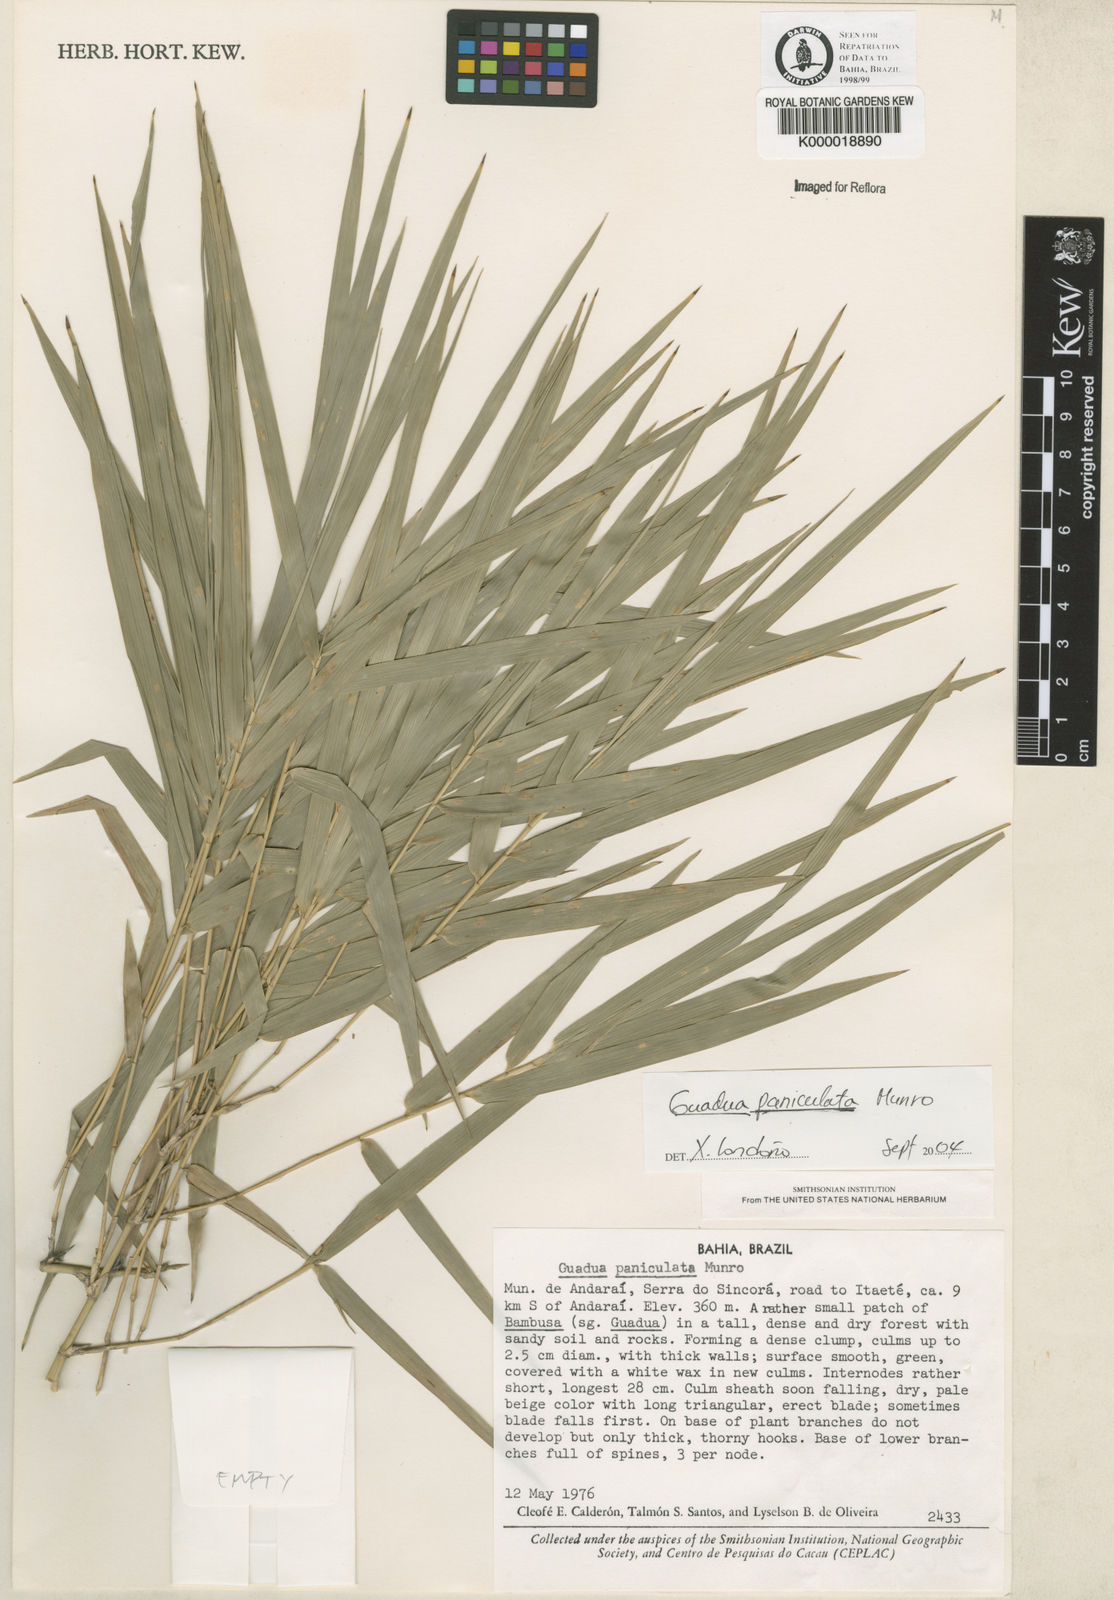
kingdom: Plantae
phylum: Tracheophyta
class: Liliopsida
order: Poales
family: Poaceae
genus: Guadua
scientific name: Guadua paniculata
